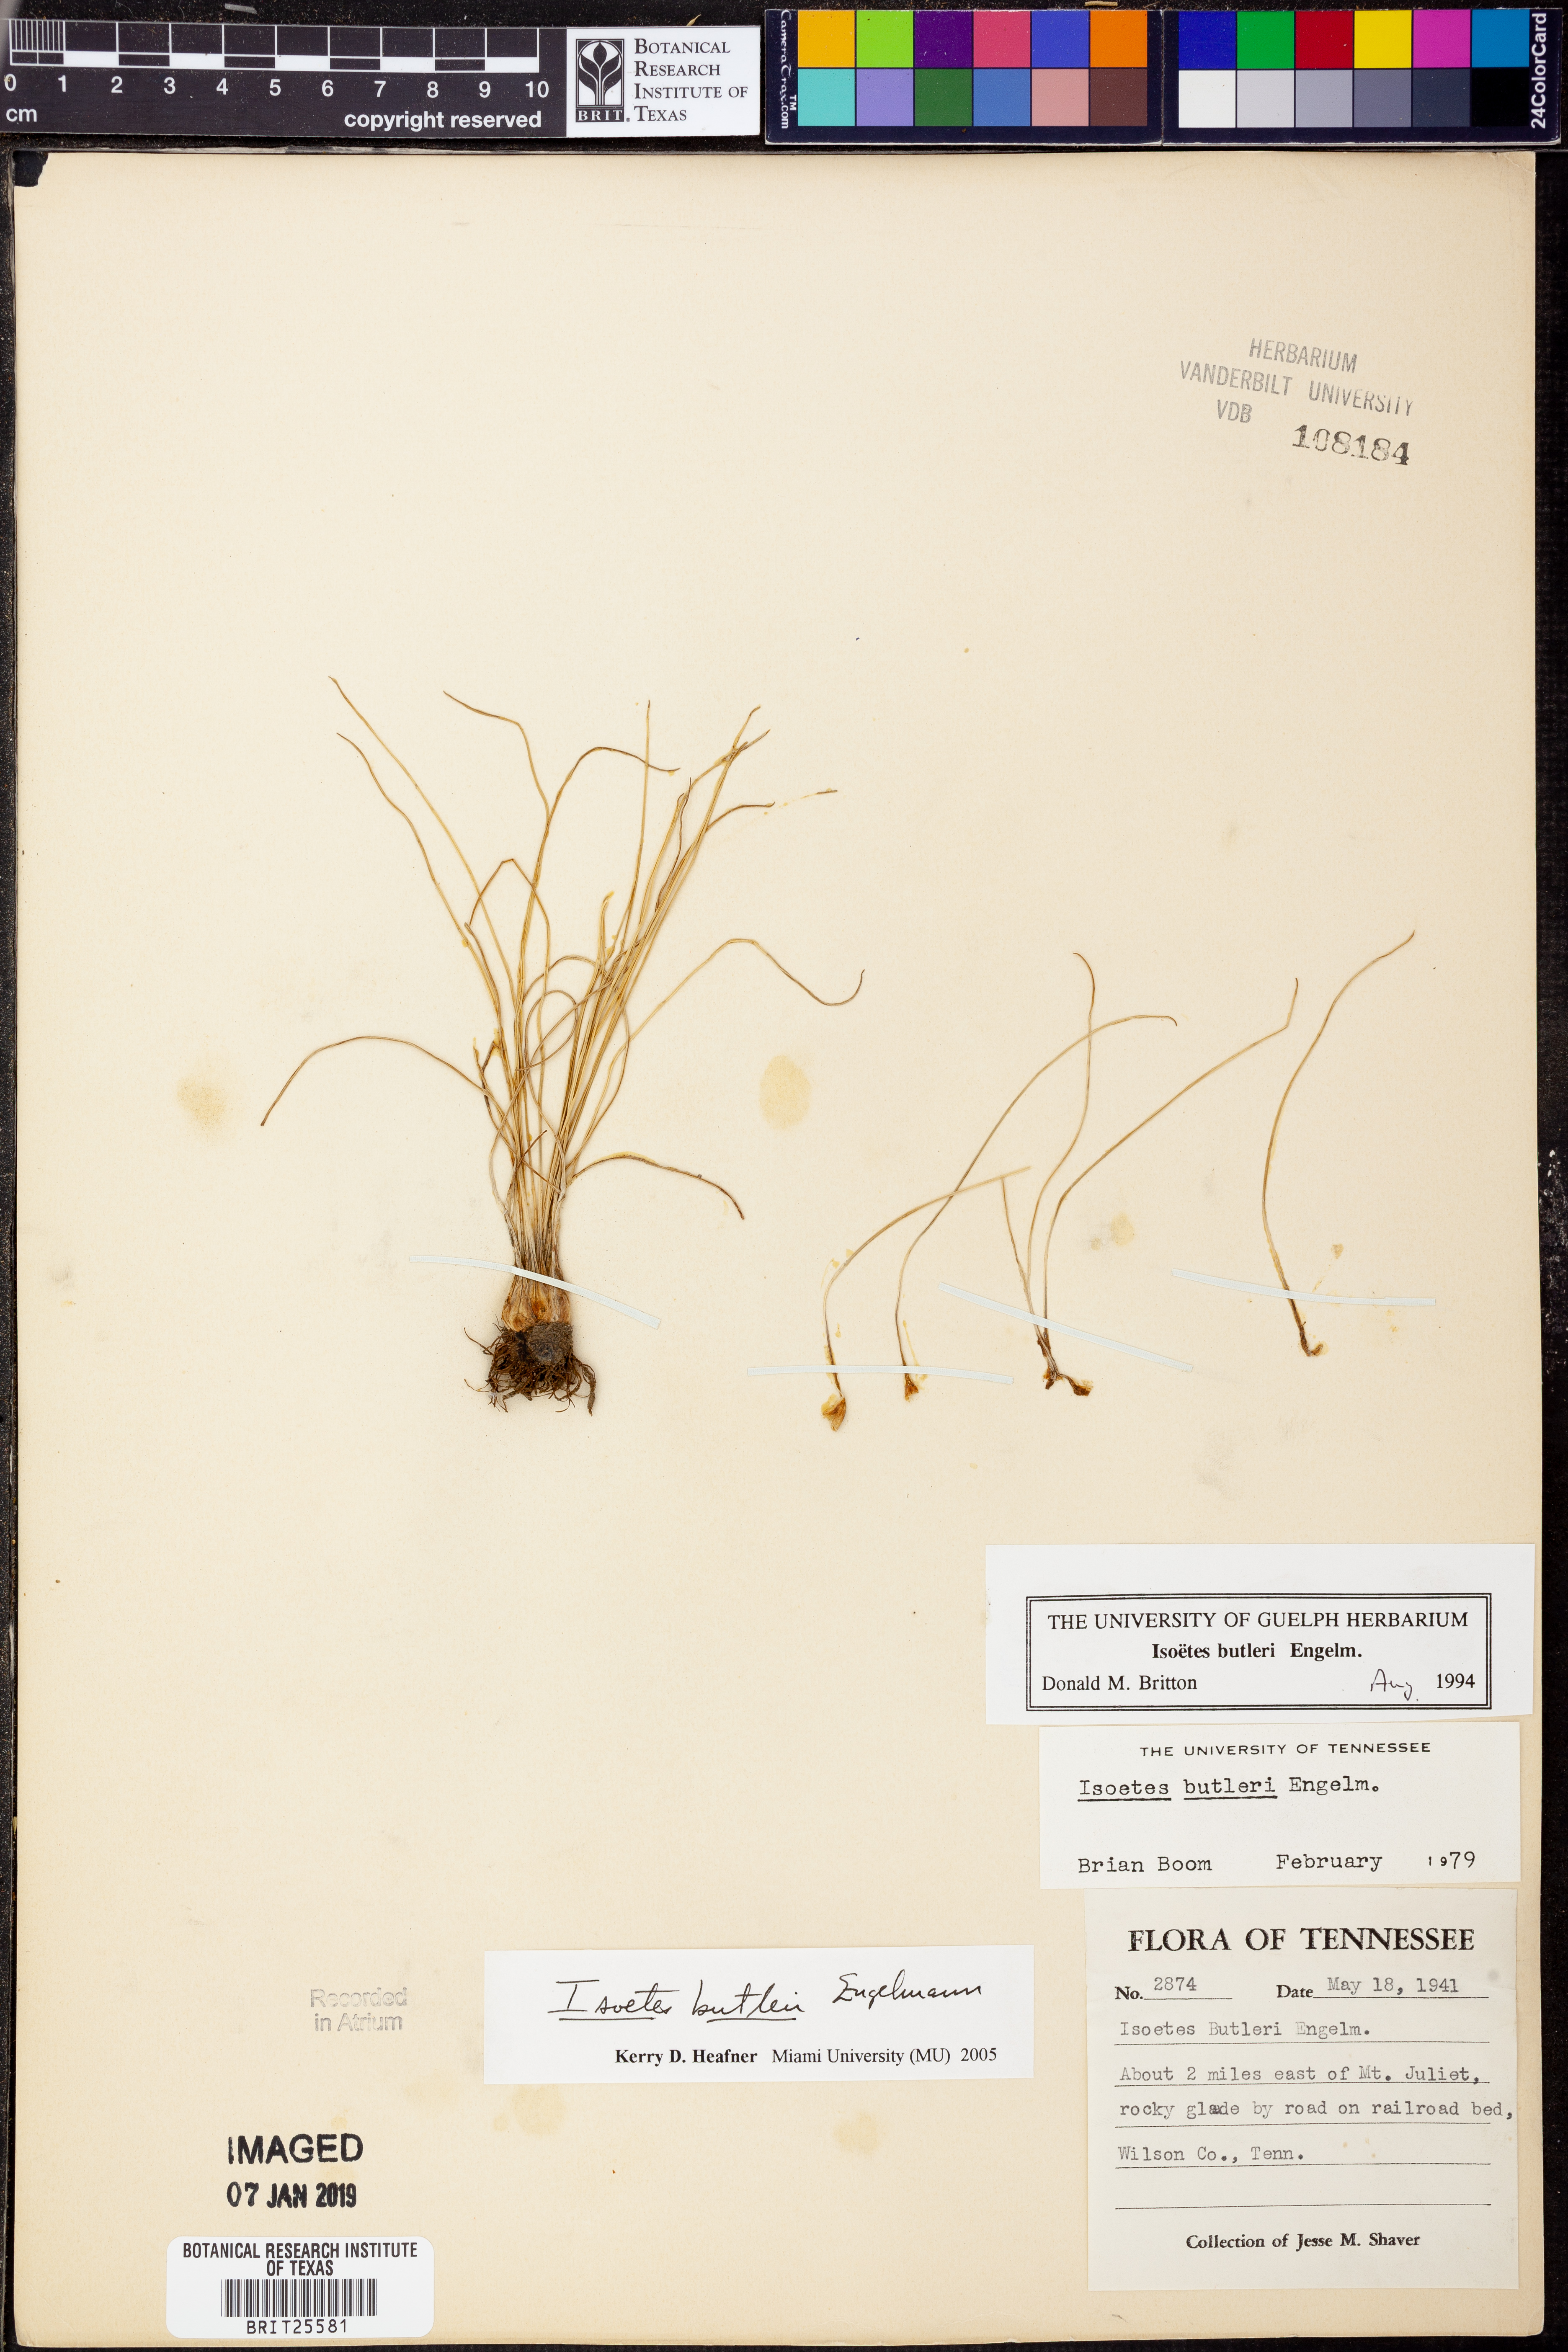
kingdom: Plantae
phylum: Tracheophyta
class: Lycopodiopsida
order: Isoetales
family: Isoetaceae
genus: Isoetes
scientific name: Isoetes butleri
